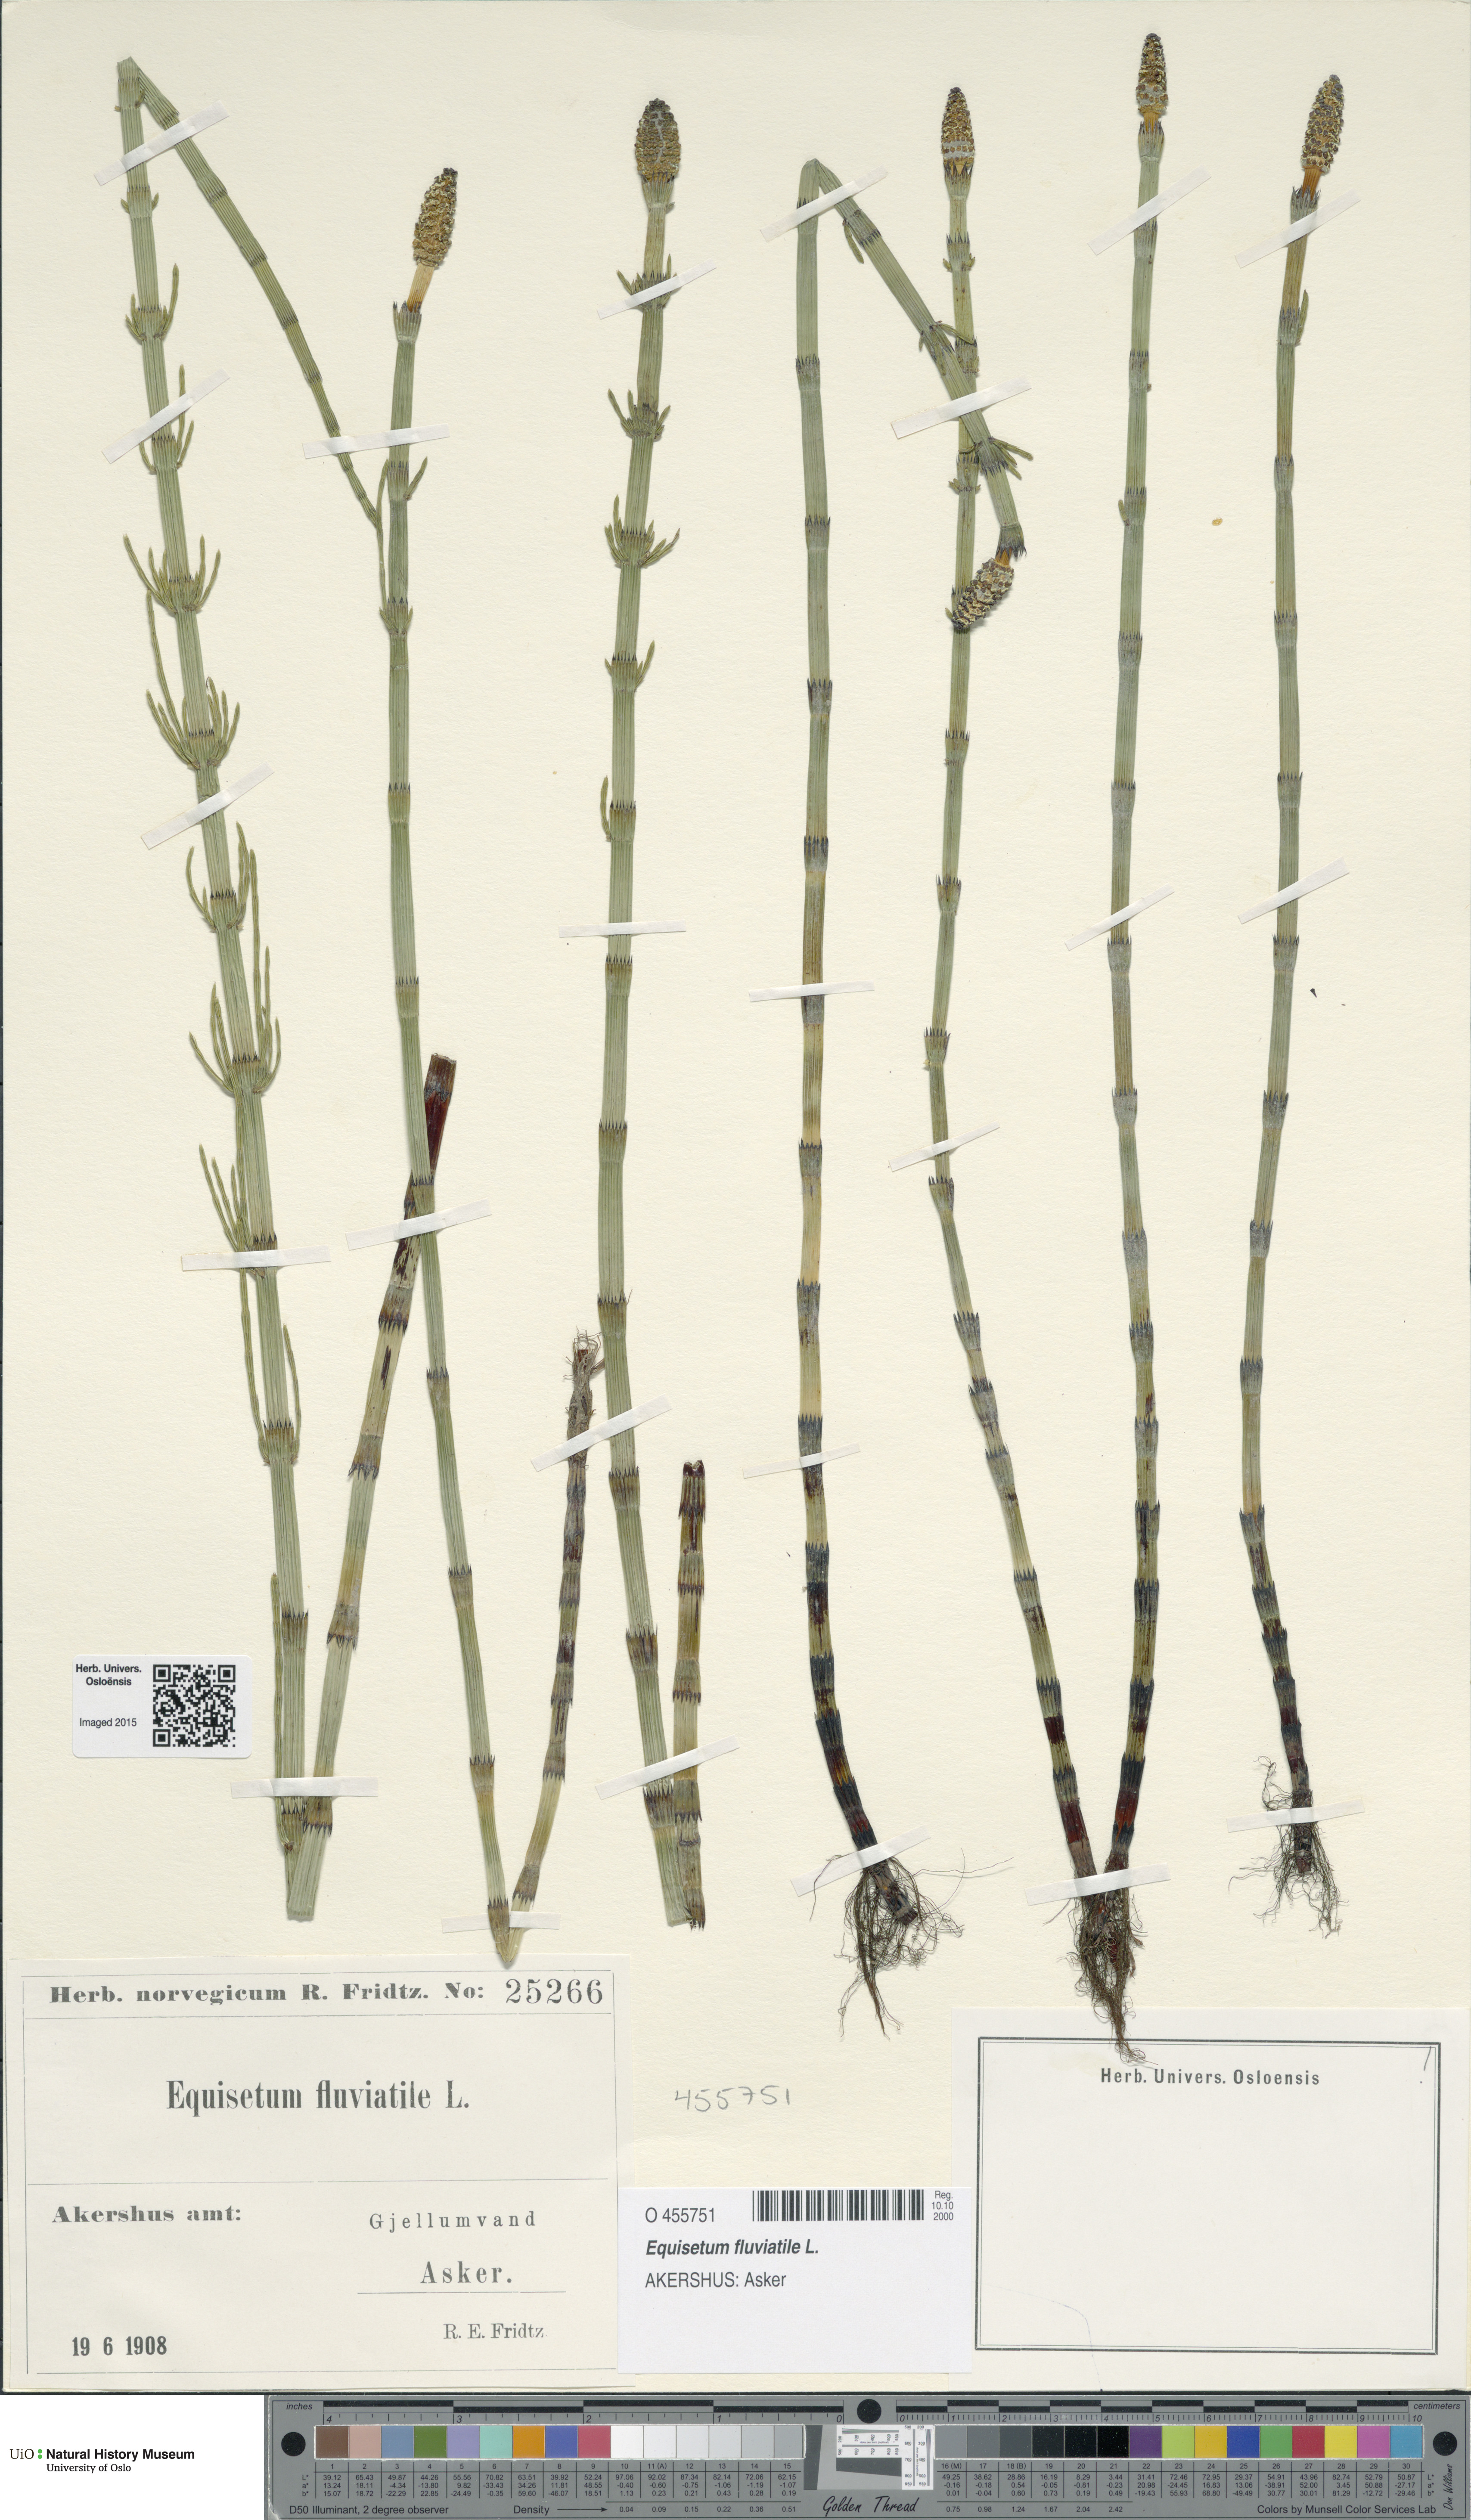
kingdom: Plantae
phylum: Tracheophyta
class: Polypodiopsida
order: Equisetales
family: Equisetaceae
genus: Equisetum
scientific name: Equisetum fluviatile
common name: Water horsetail
